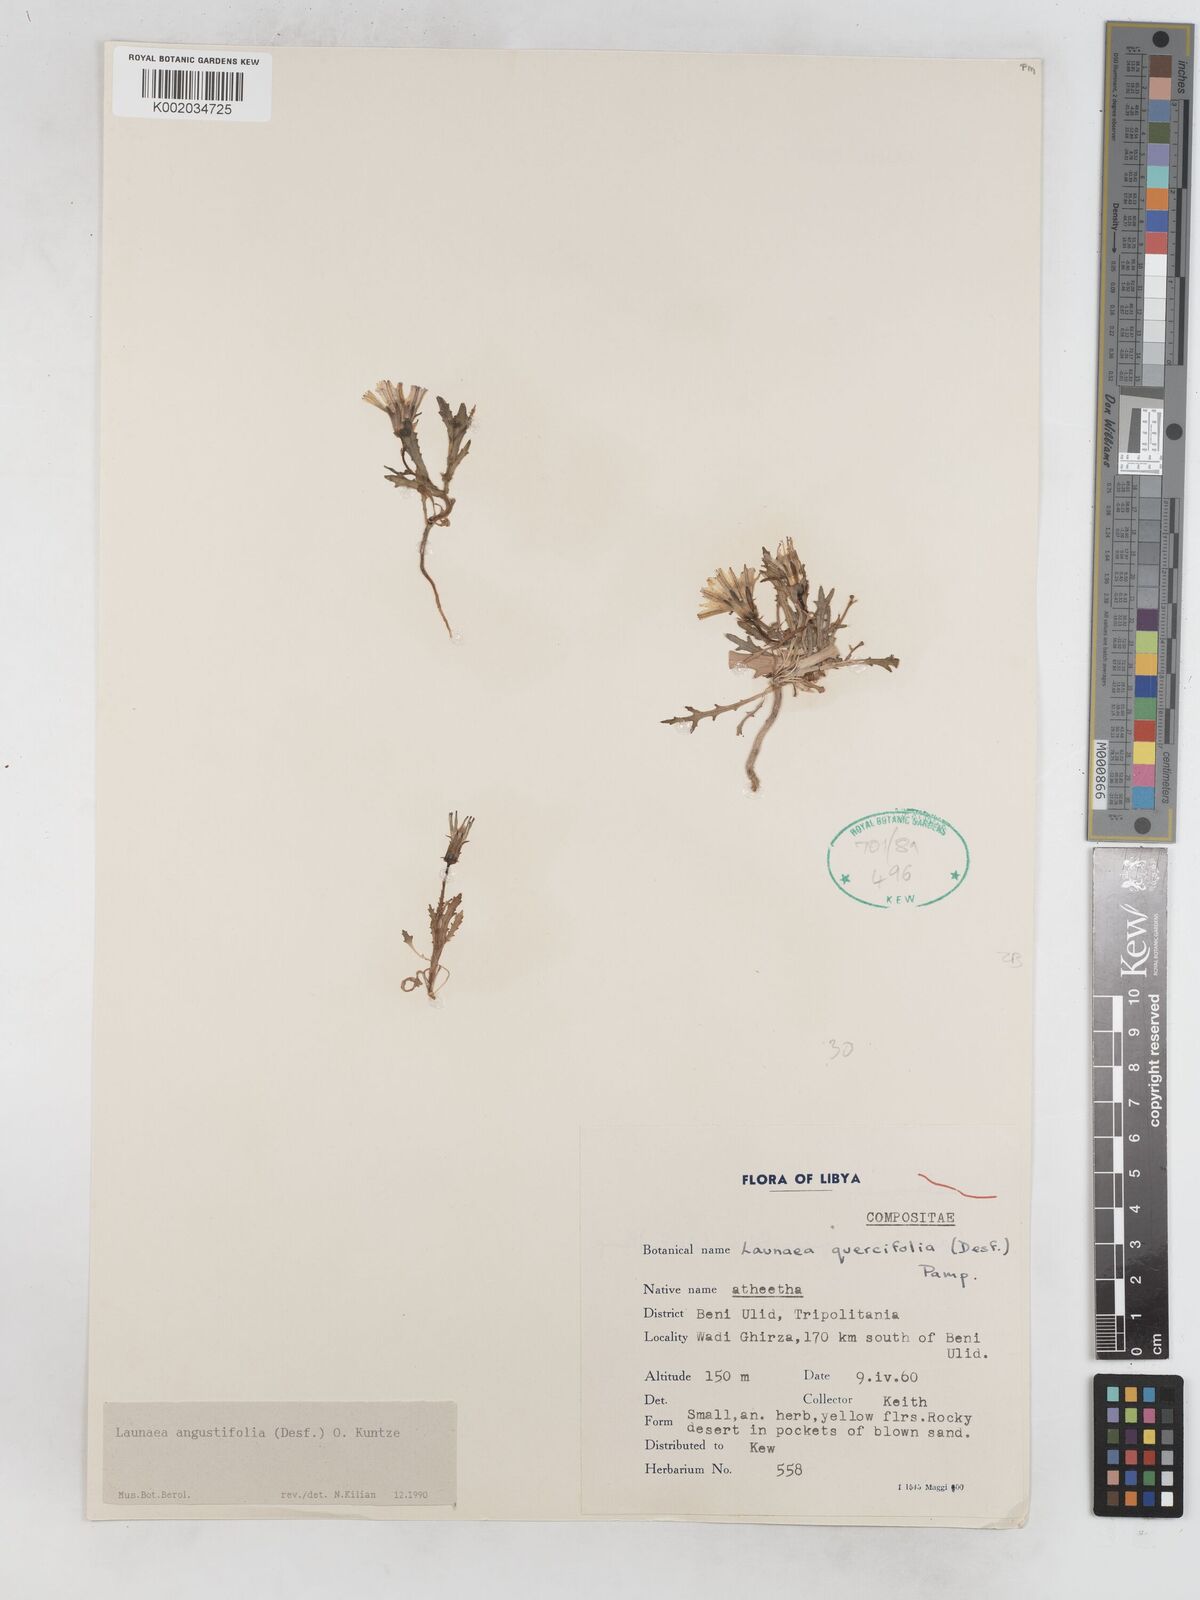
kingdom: Plantae
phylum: Tracheophyta
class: Magnoliopsida
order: Asterales
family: Asteraceae
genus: Launaea
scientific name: Launaea angustifolia
